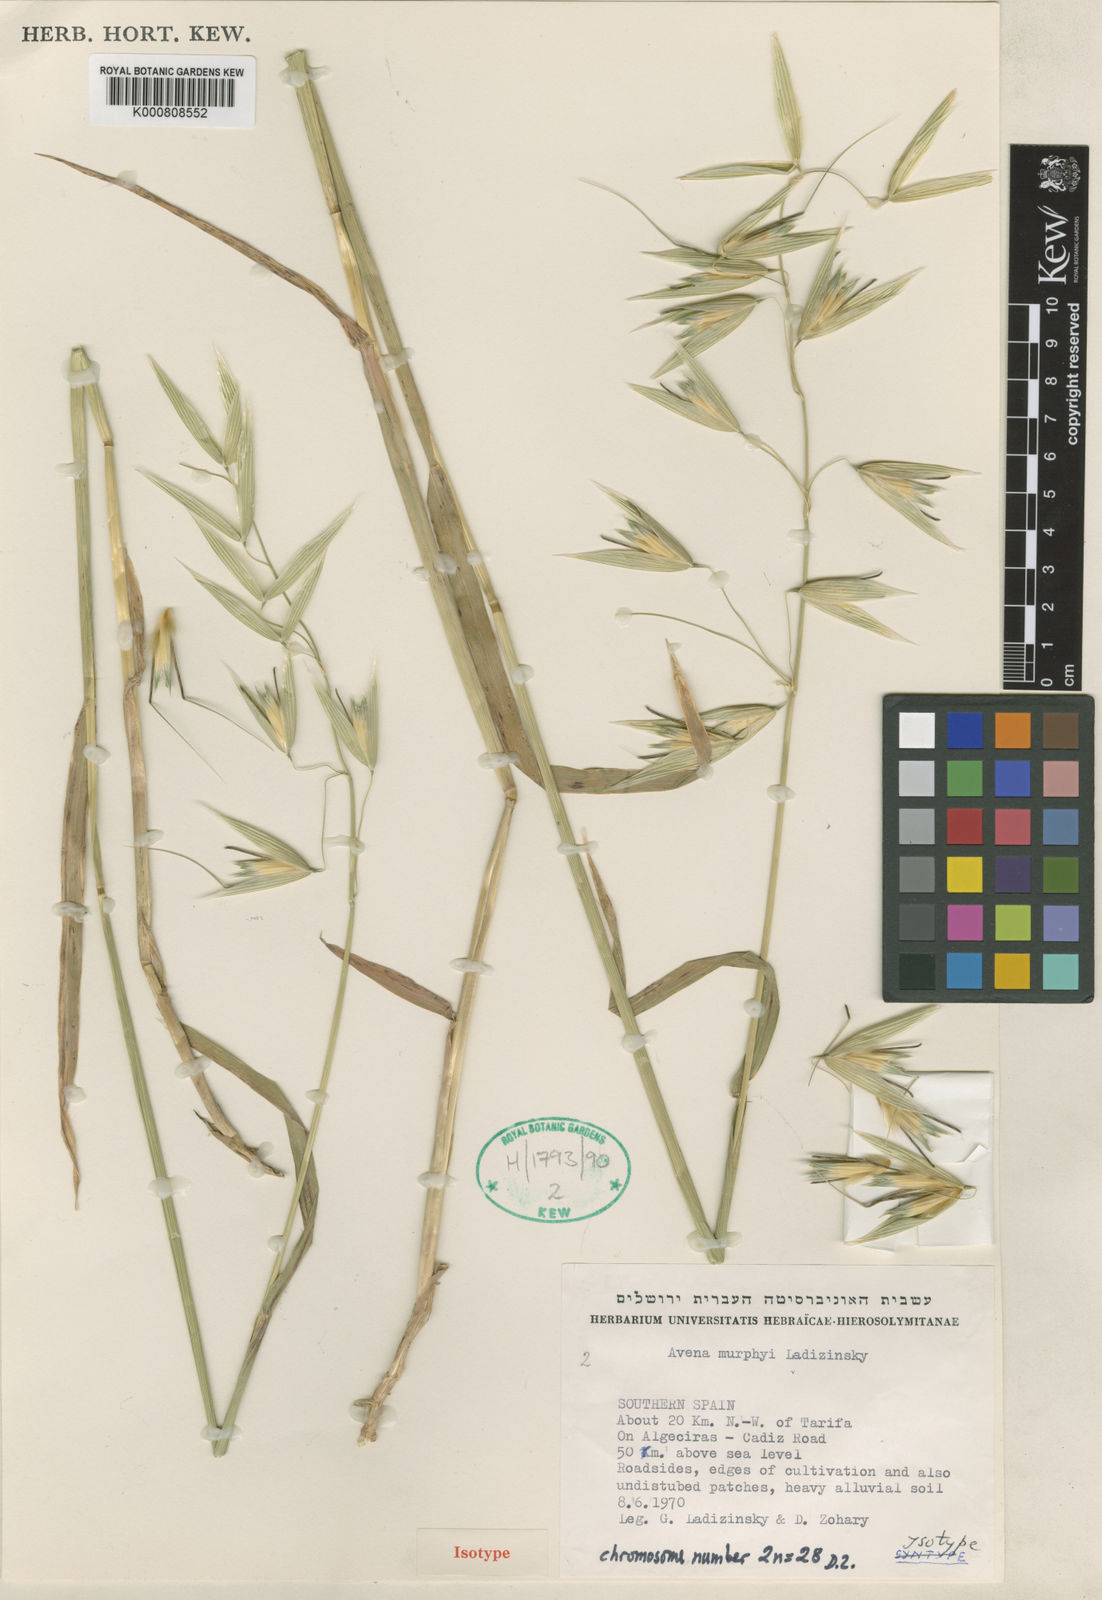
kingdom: Plantae
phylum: Tracheophyta
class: Liliopsida
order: Poales
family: Poaceae
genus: Avena
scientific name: Avena murphyi
